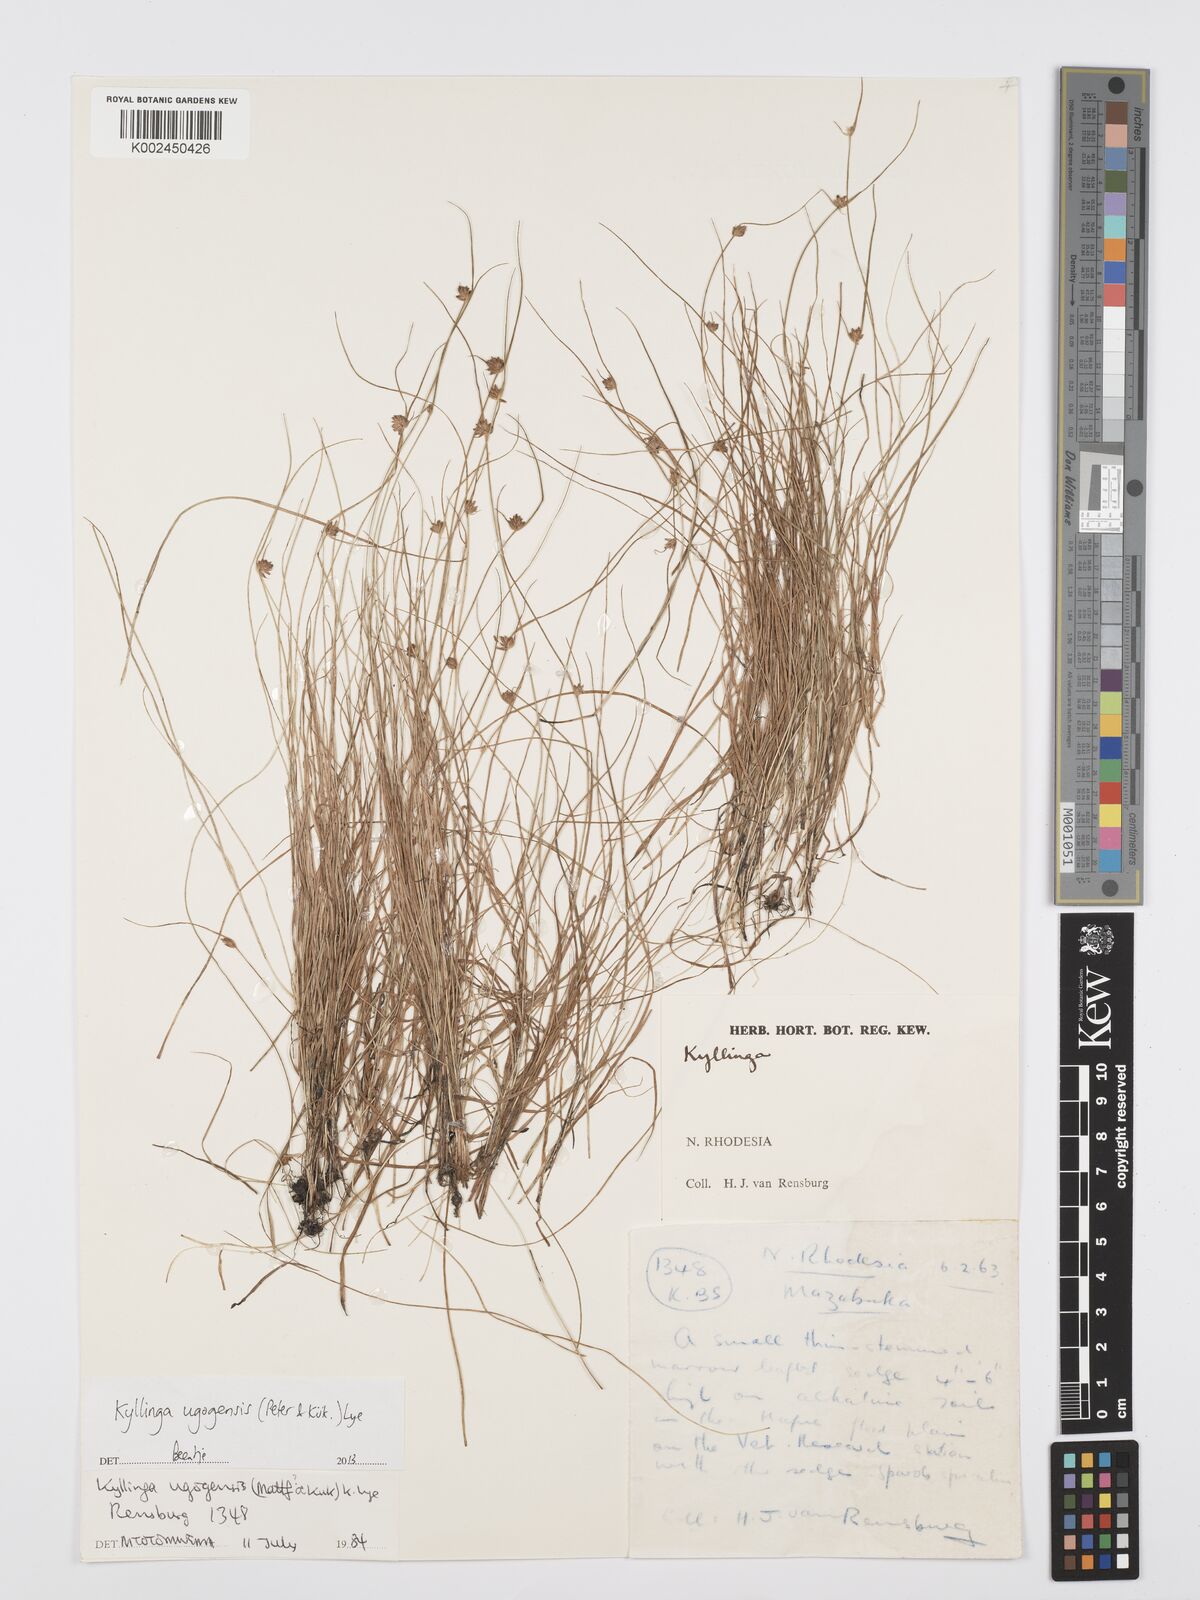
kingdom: Plantae
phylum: Tracheophyta
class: Liliopsida
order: Poales
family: Cyperaceae
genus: Cyperus
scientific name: Cyperus ugogensis
